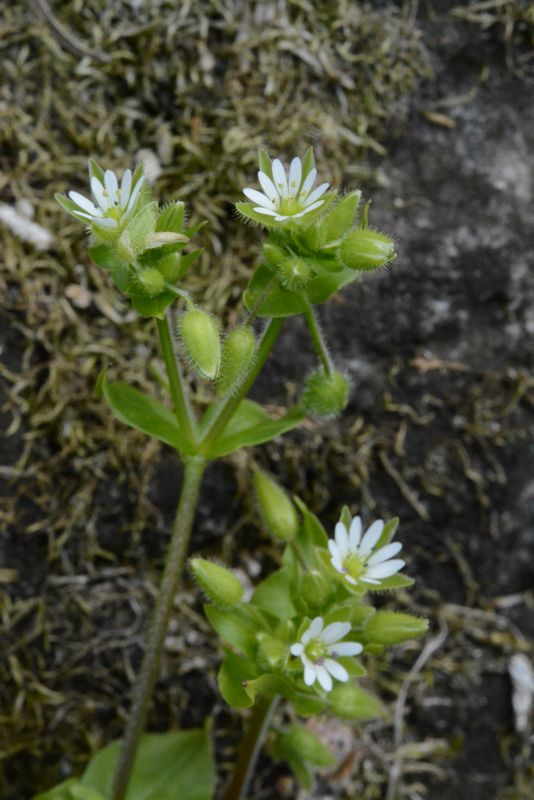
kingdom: Plantae
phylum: Tracheophyta
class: Magnoliopsida
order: Caryophyllales
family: Caryophyllaceae
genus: Stellaria
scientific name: Stellaria media
